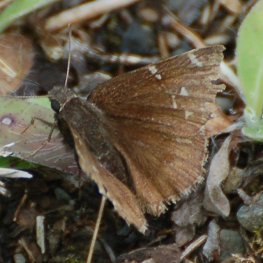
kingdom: Animalia
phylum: Arthropoda
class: Insecta
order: Lepidoptera
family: Hesperiidae
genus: Autochton
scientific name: Autochton
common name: Northern Cloudywing
